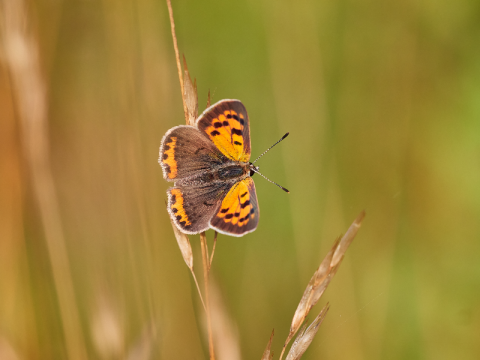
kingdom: Animalia
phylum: Arthropoda
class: Insecta
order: Lepidoptera
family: Lycaenidae
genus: Lycaena
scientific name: Lycaena phlaeas
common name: American Copper
